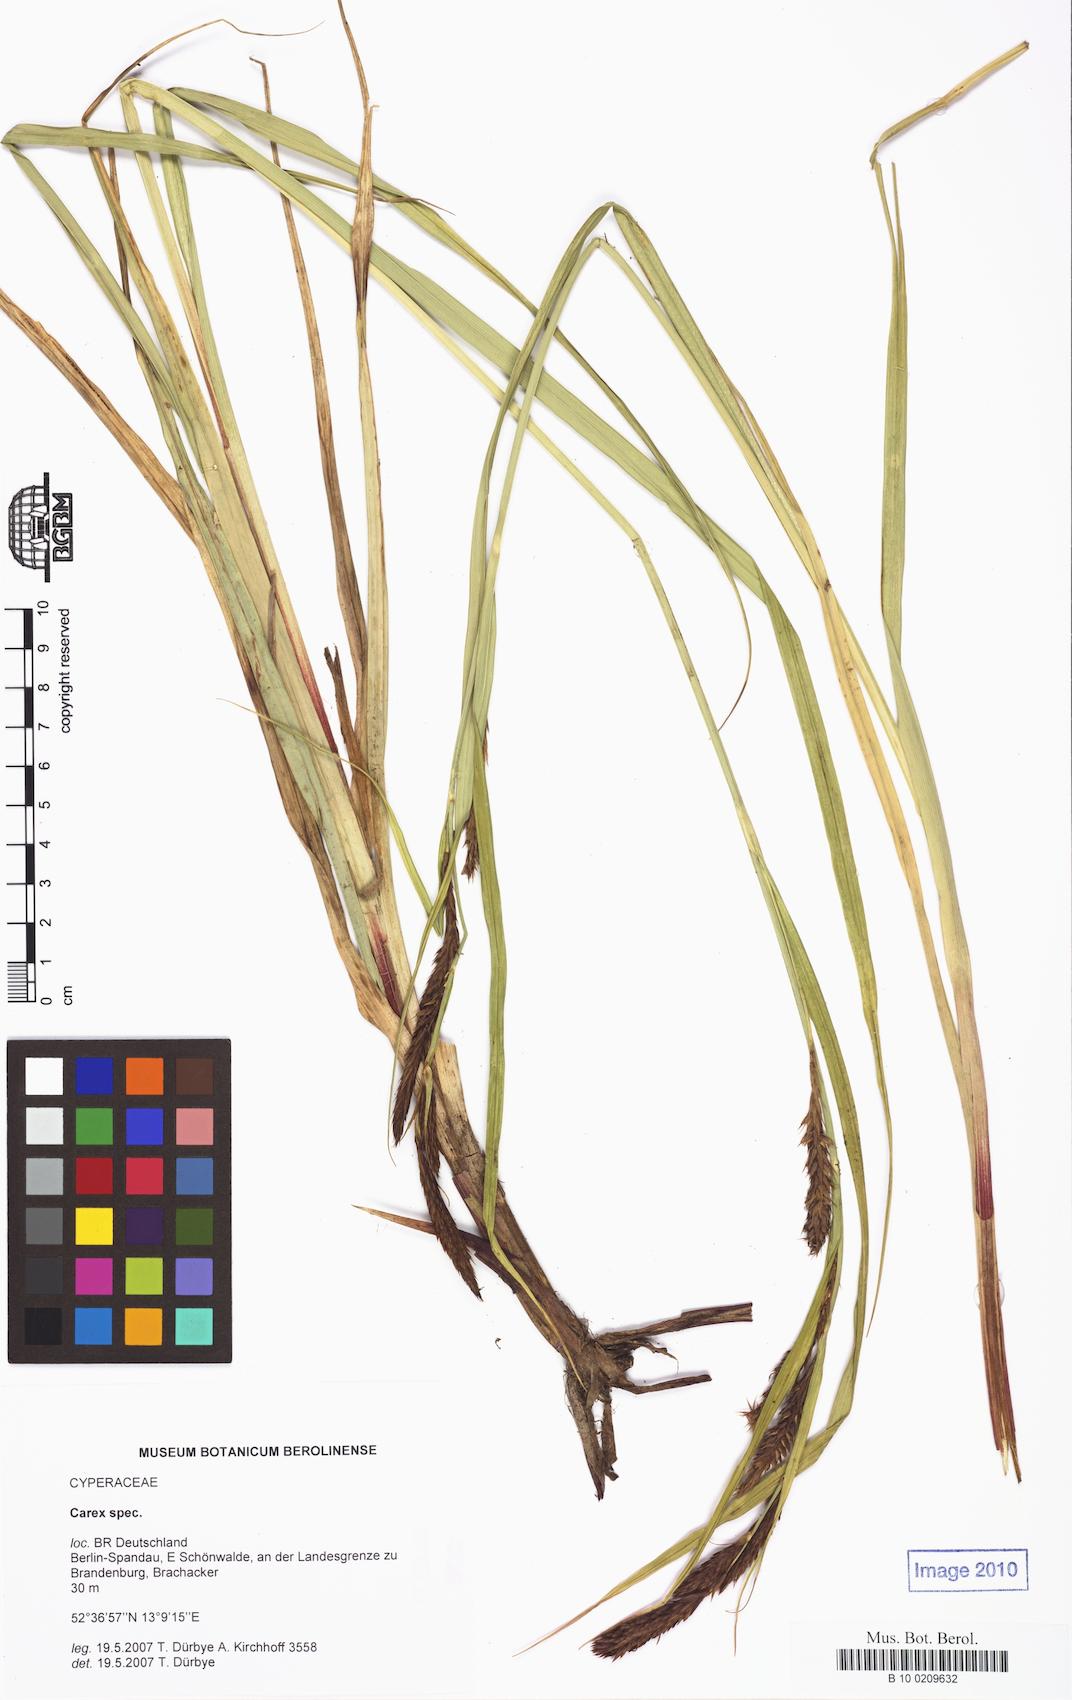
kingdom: Plantae
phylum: Tracheophyta
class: Liliopsida
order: Poales
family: Cyperaceae
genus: Carex
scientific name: Carex acutiformis
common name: Lesser pond-sedge
